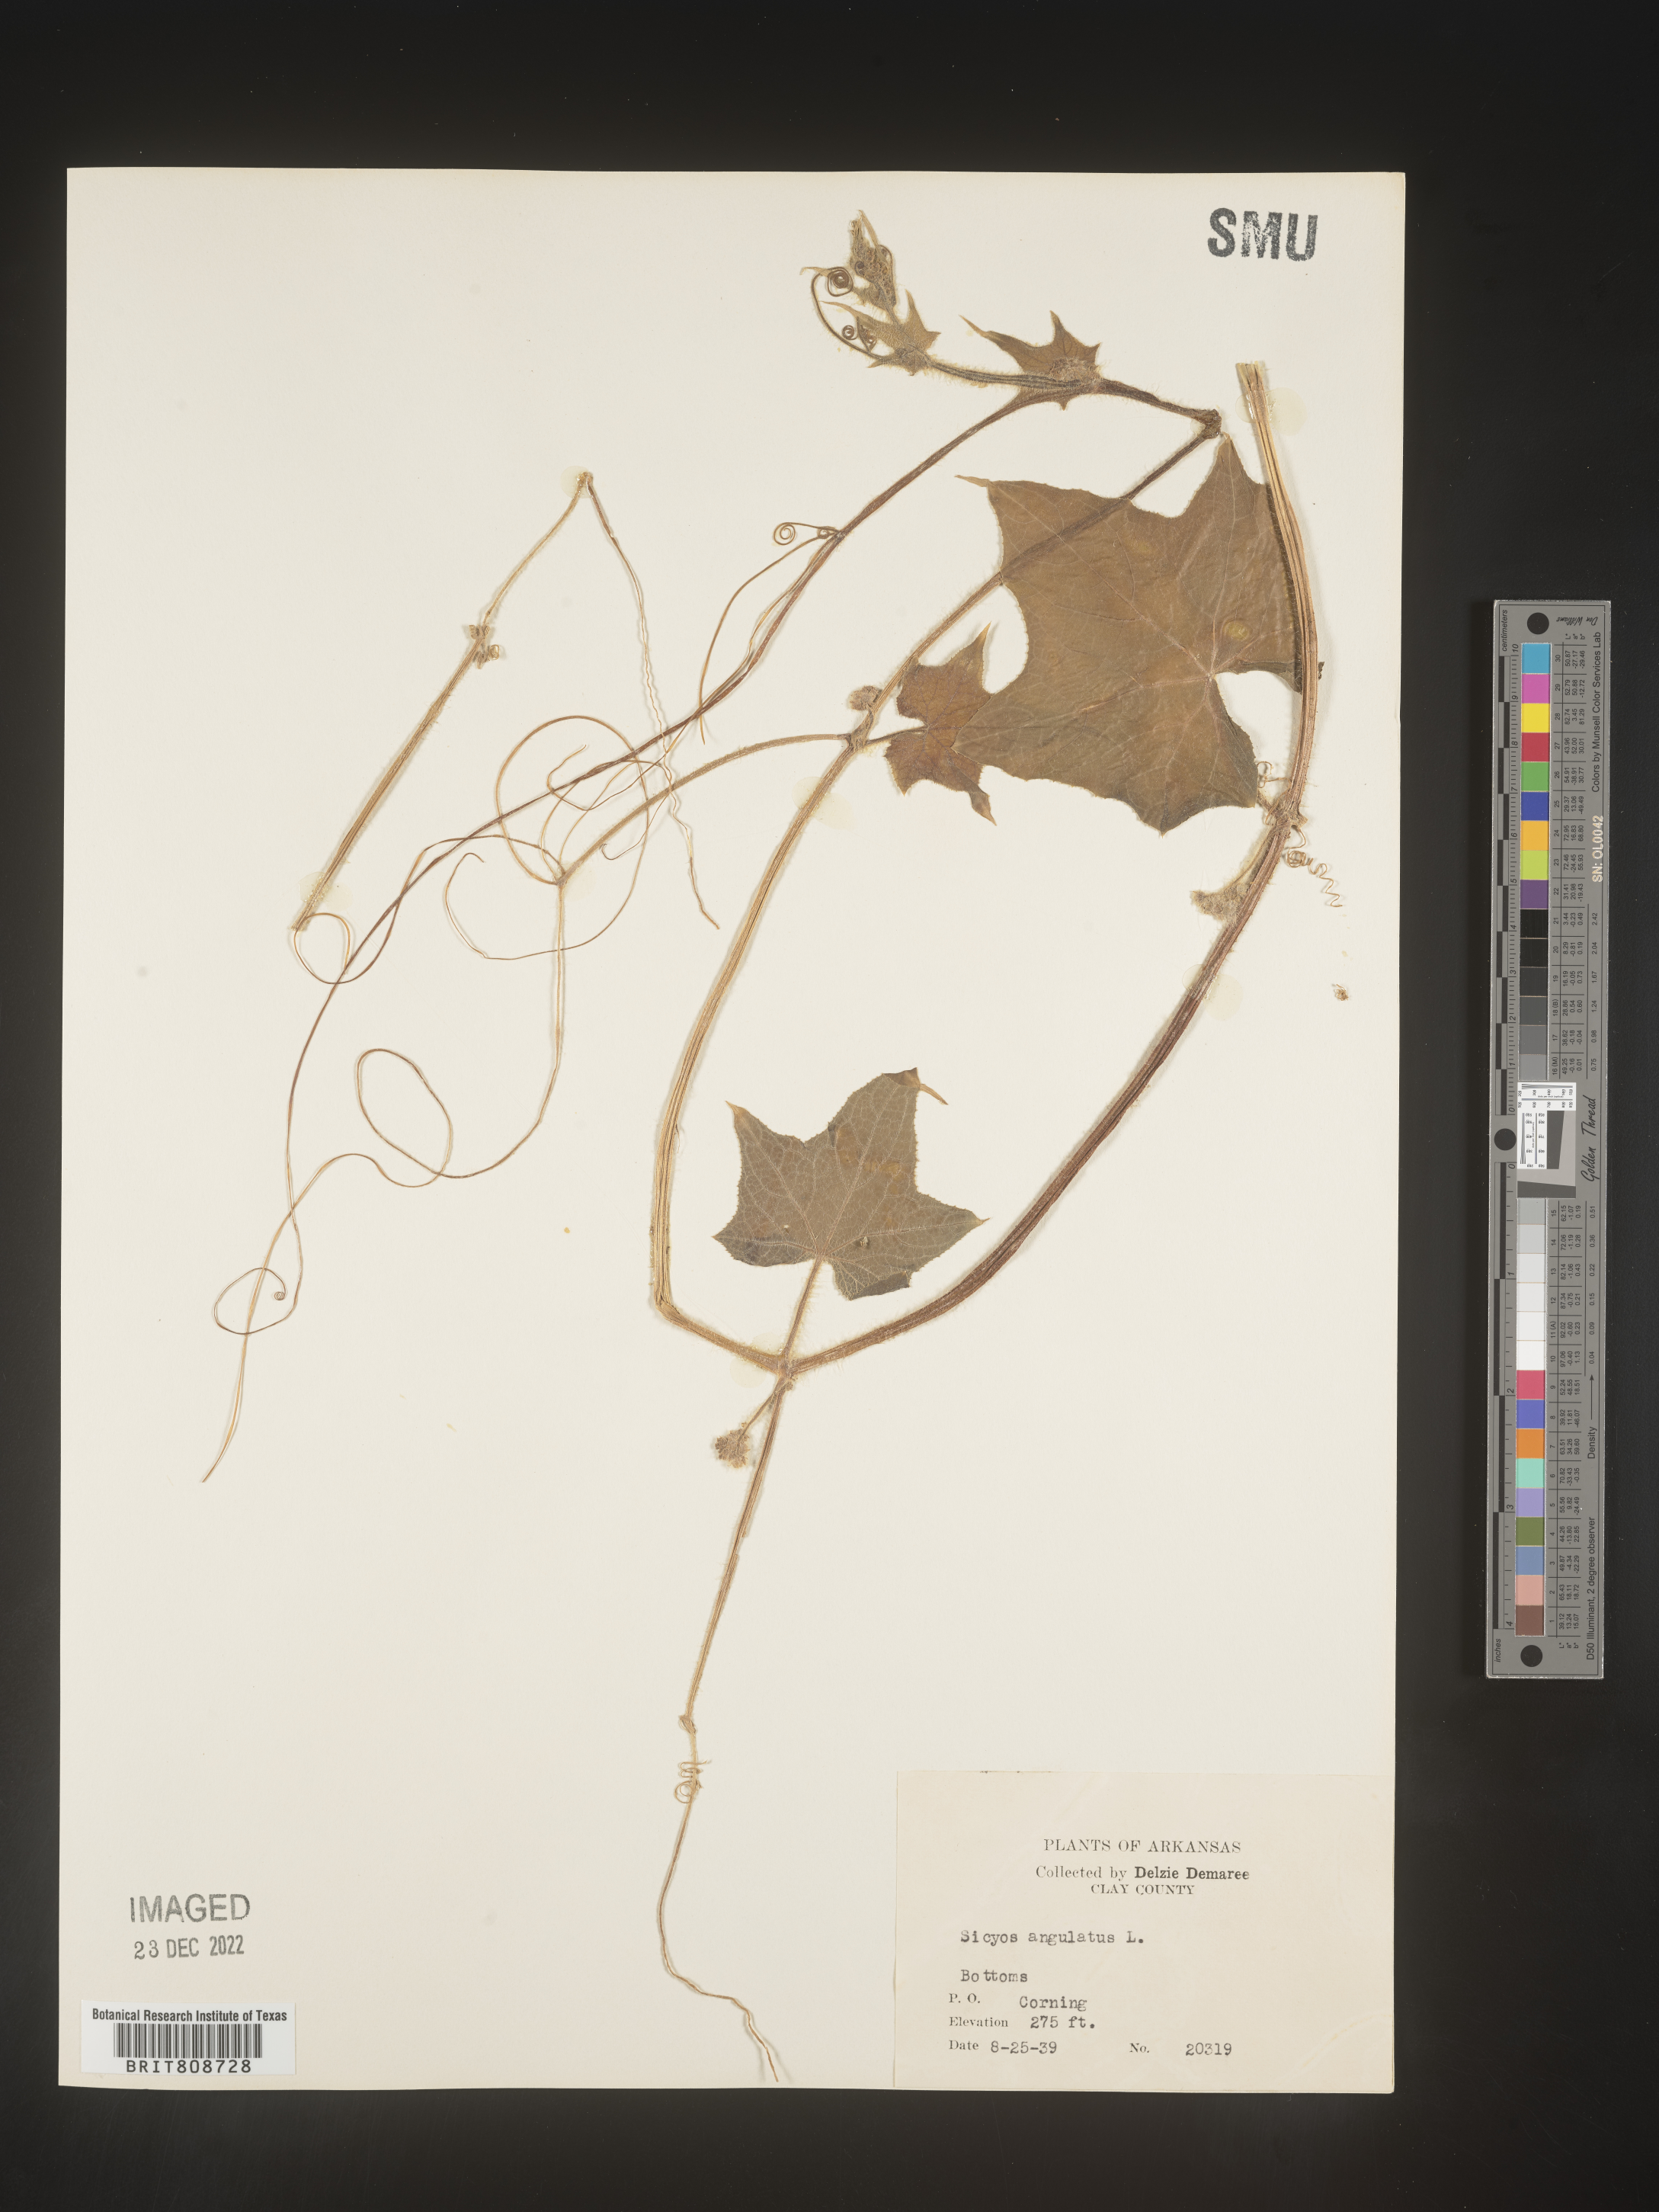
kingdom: Plantae
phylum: Tracheophyta
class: Magnoliopsida
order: Cucurbitales
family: Cucurbitaceae
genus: Sicyos
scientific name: Sicyos angulatus
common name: Angled burr cucumber
